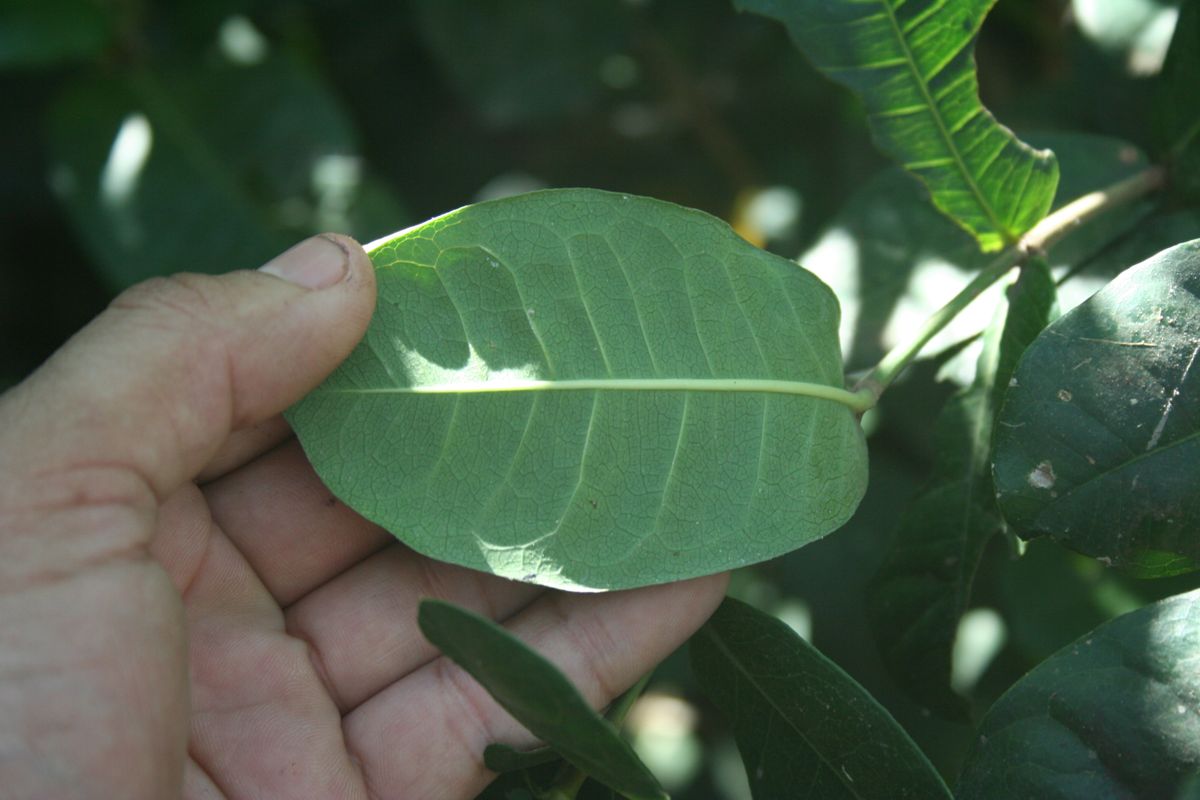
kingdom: Plantae
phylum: Tracheophyta
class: Magnoliopsida
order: Gentianales
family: Rubiaceae
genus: Ixora
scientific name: Ixora
